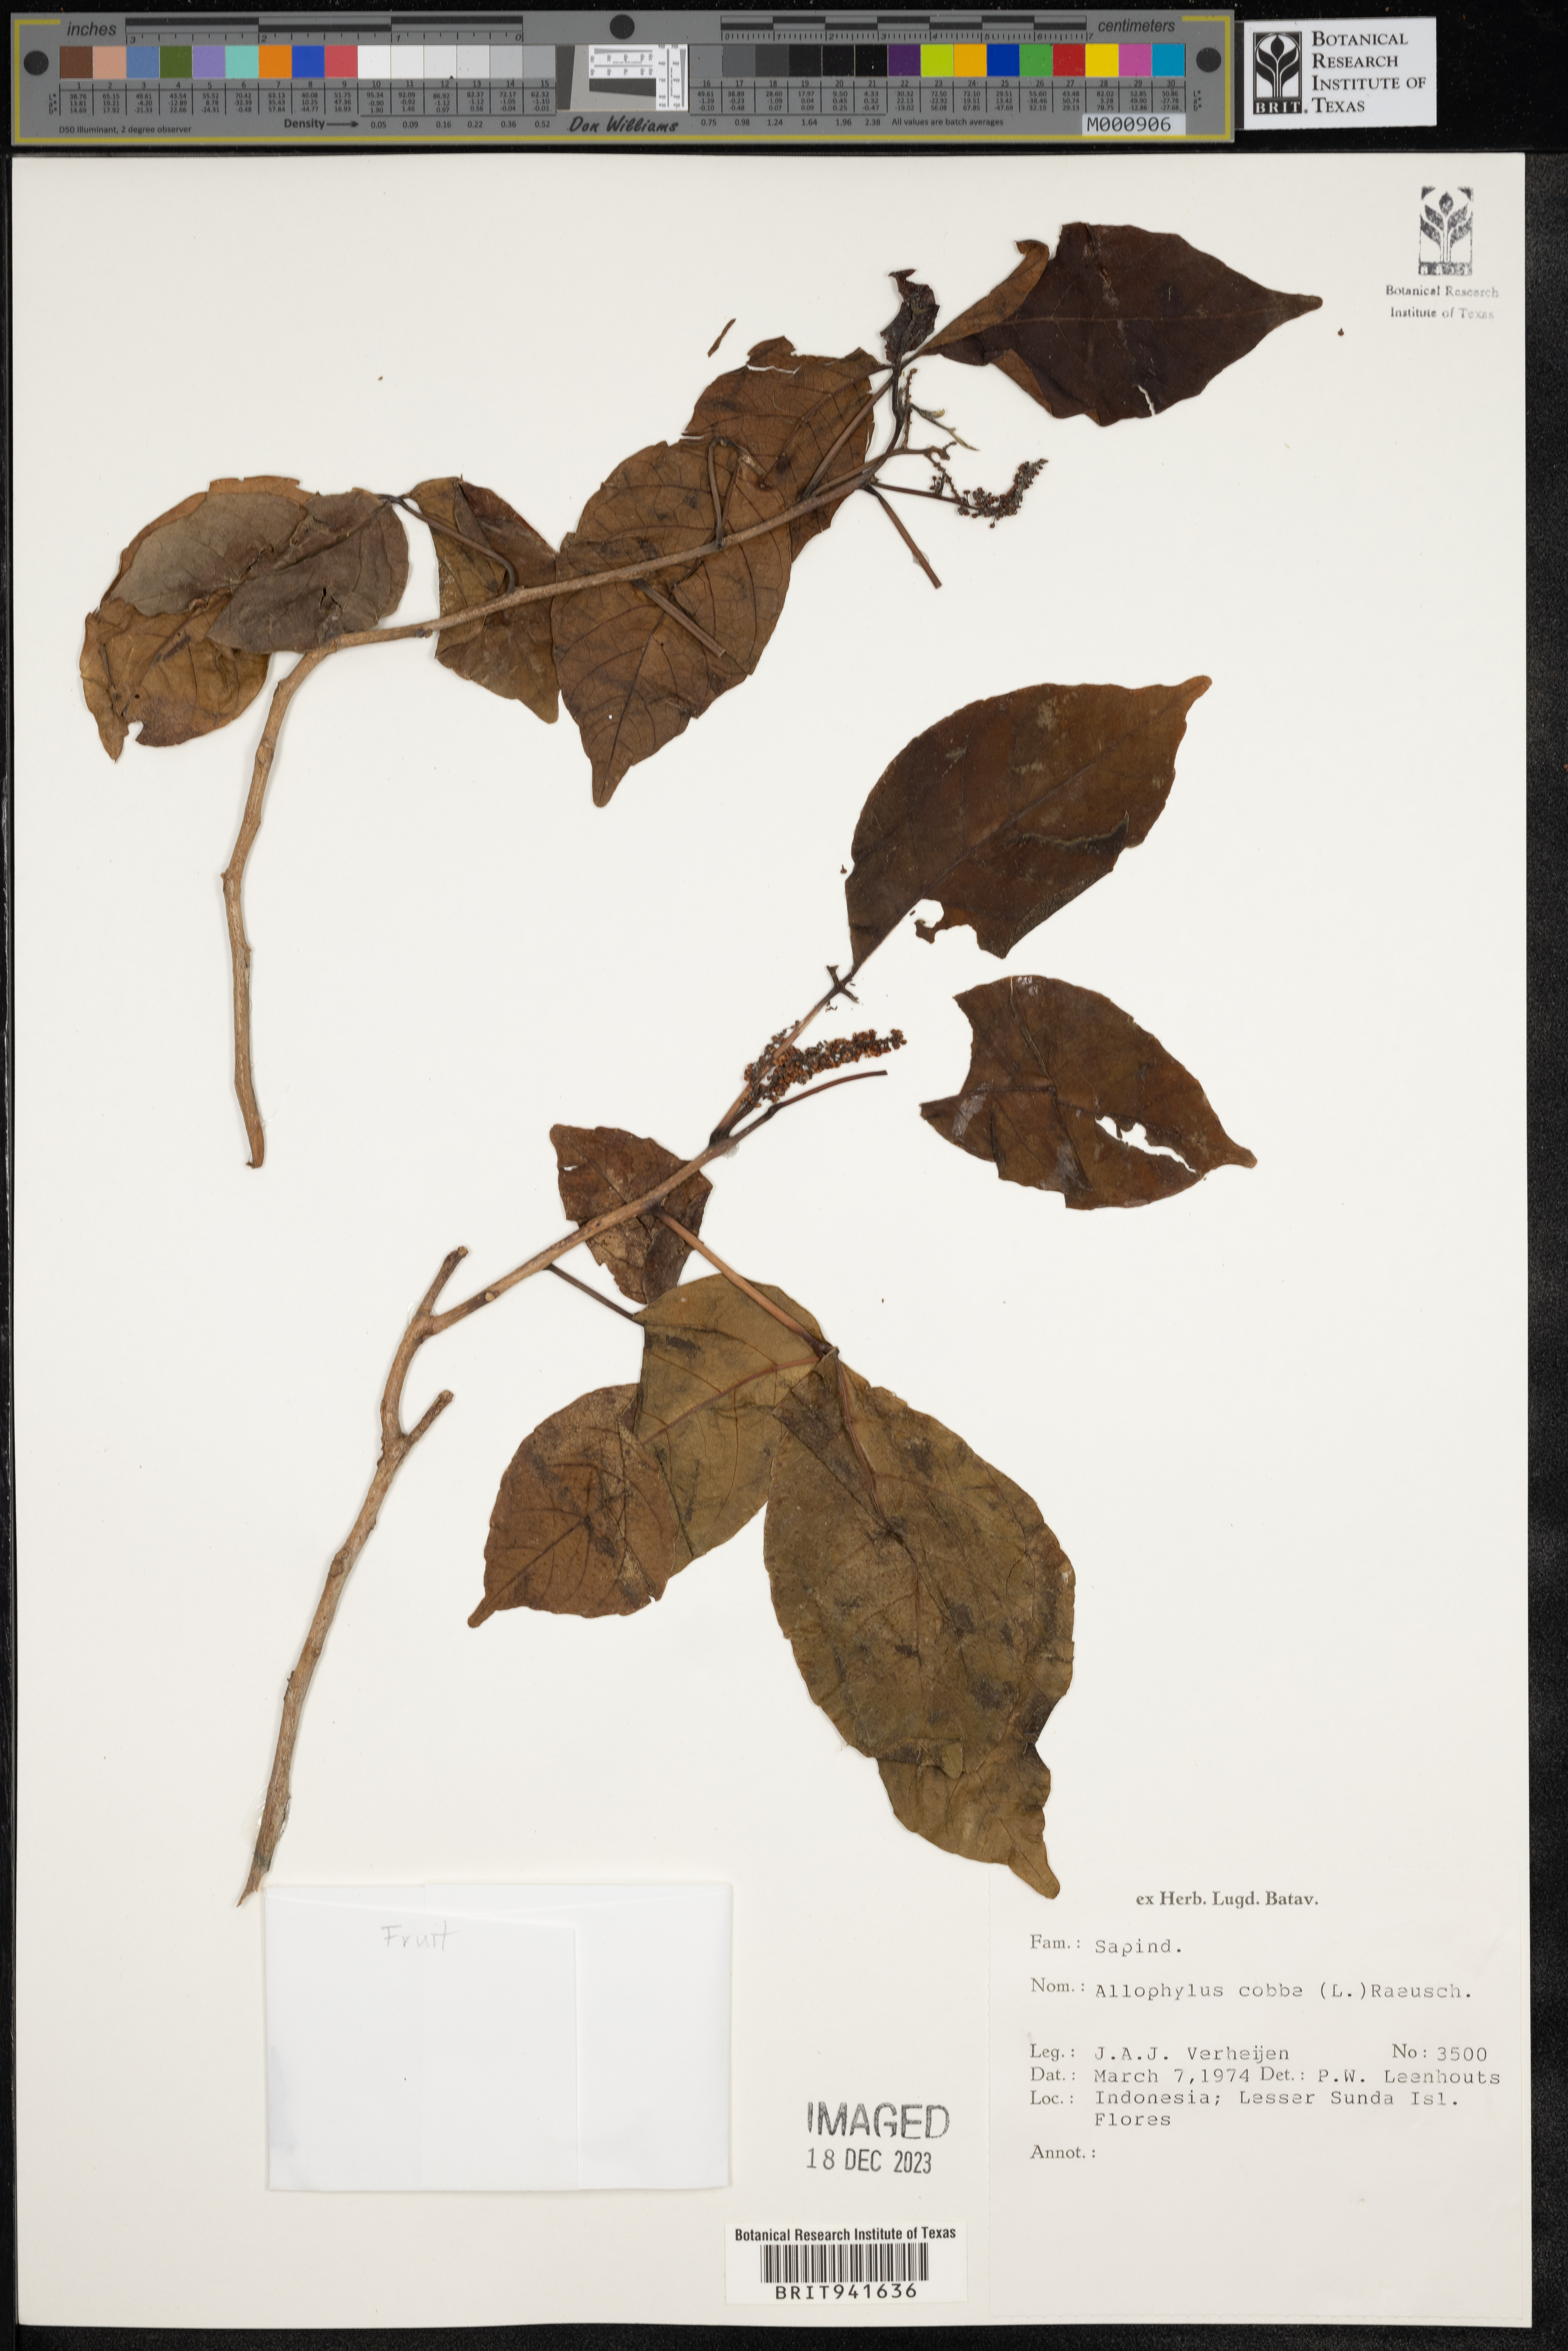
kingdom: Plantae
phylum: Tracheophyta
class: Magnoliopsida
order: Ericales
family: Polemoniaceae
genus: Allophyllum
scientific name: Allophyllum
